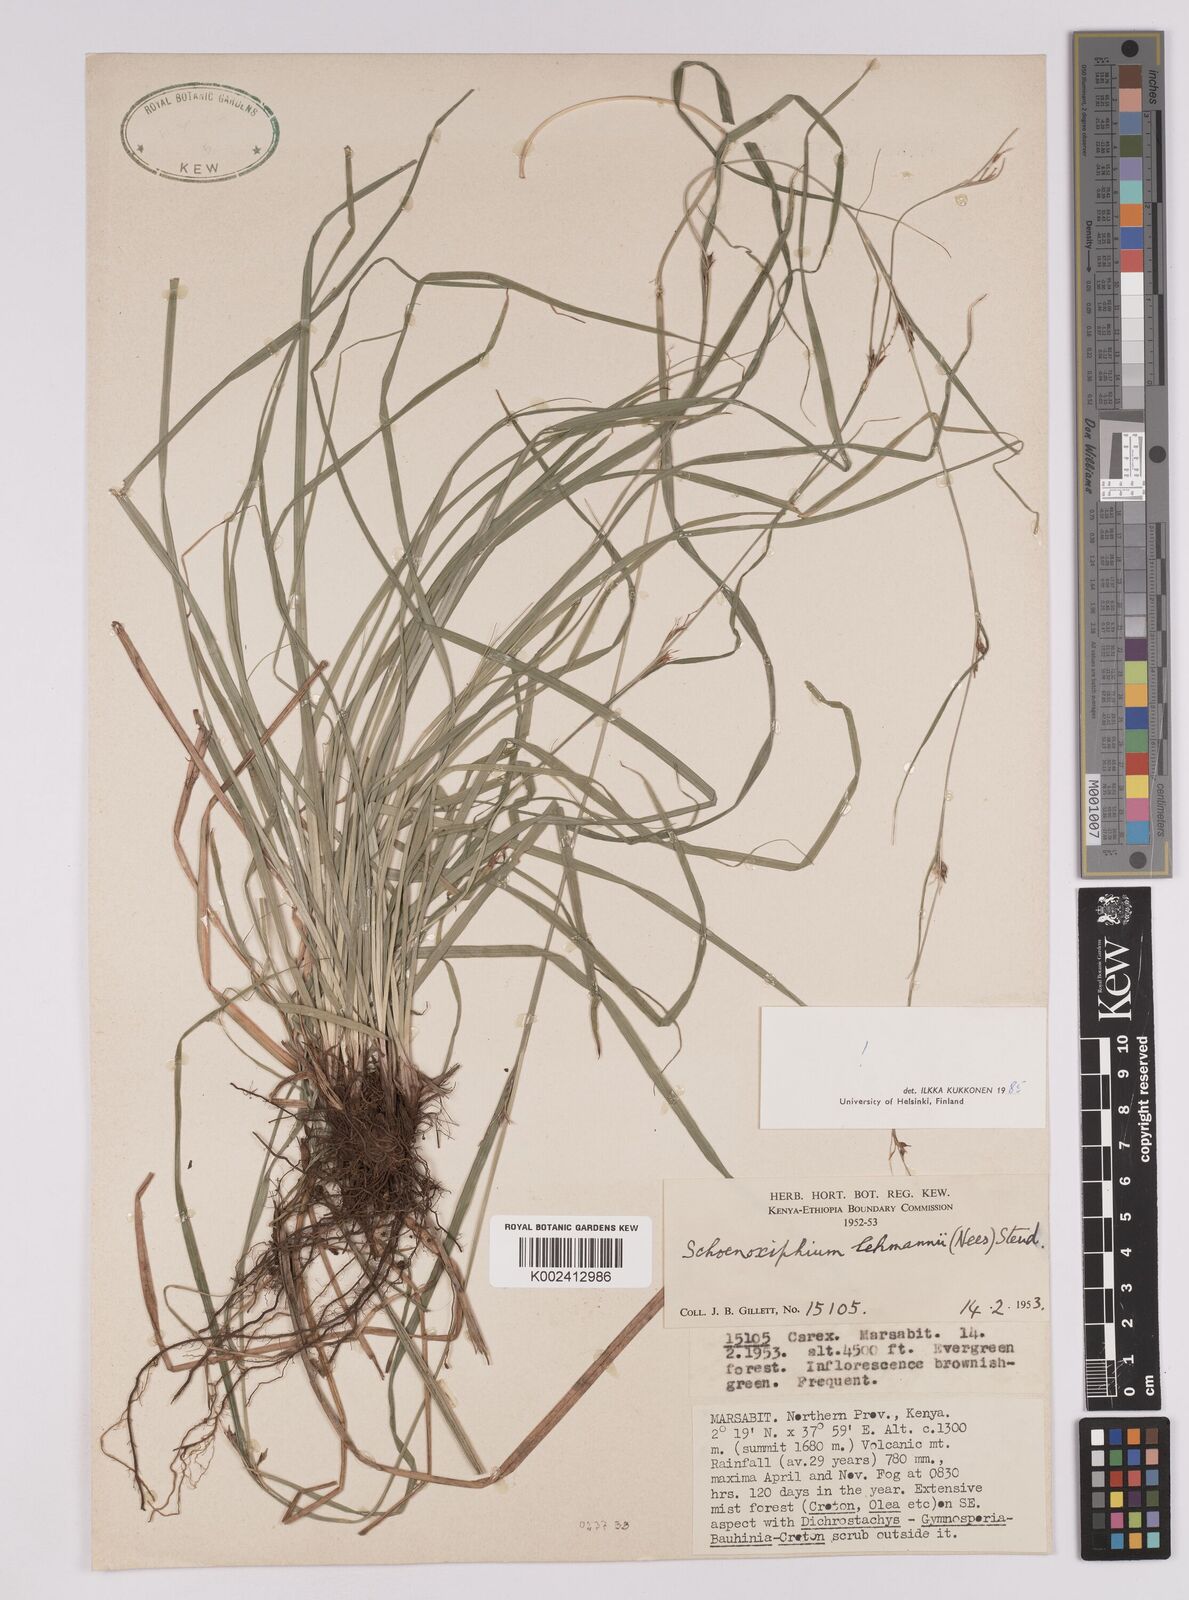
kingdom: Plantae
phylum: Tracheophyta
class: Liliopsida
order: Poales
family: Cyperaceae
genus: Carex
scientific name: Carex uhligii
